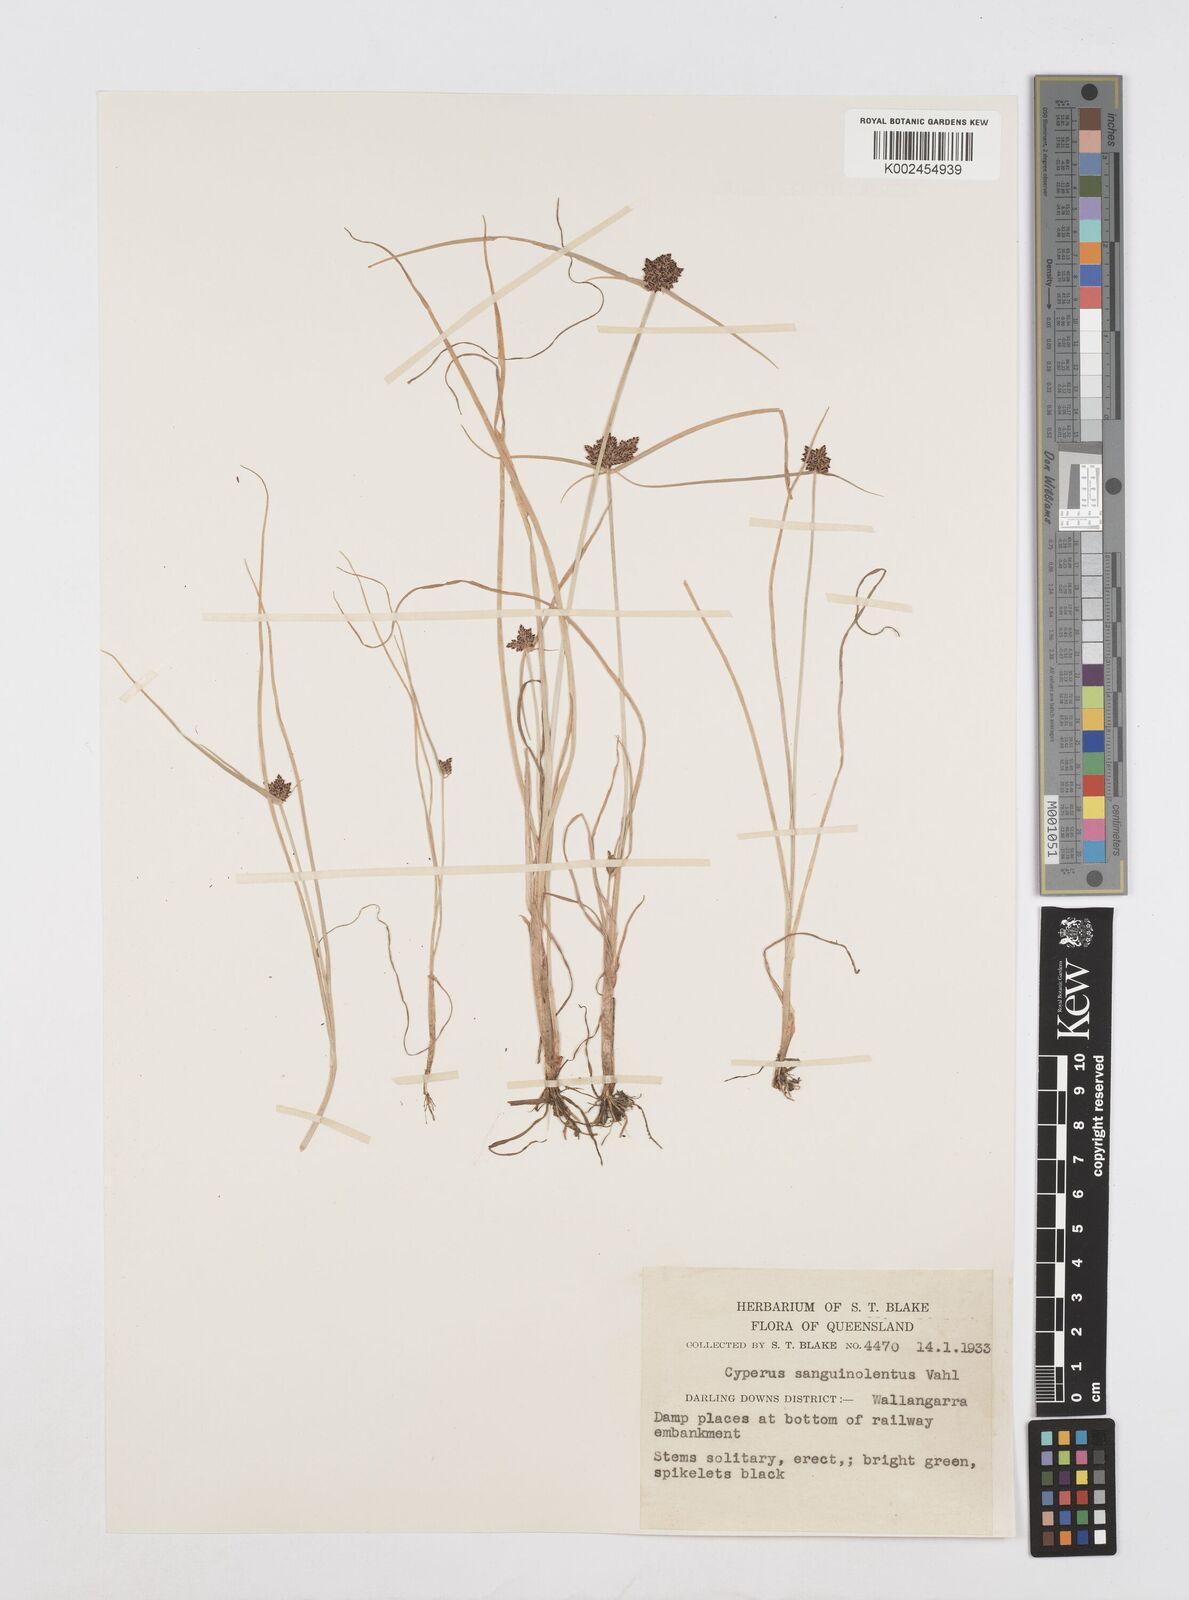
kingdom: Plantae
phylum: Tracheophyta
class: Liliopsida
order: Poales
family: Cyperaceae
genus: Cyperus
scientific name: Cyperus sanguinolentus
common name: Purpleglume flatsedge
